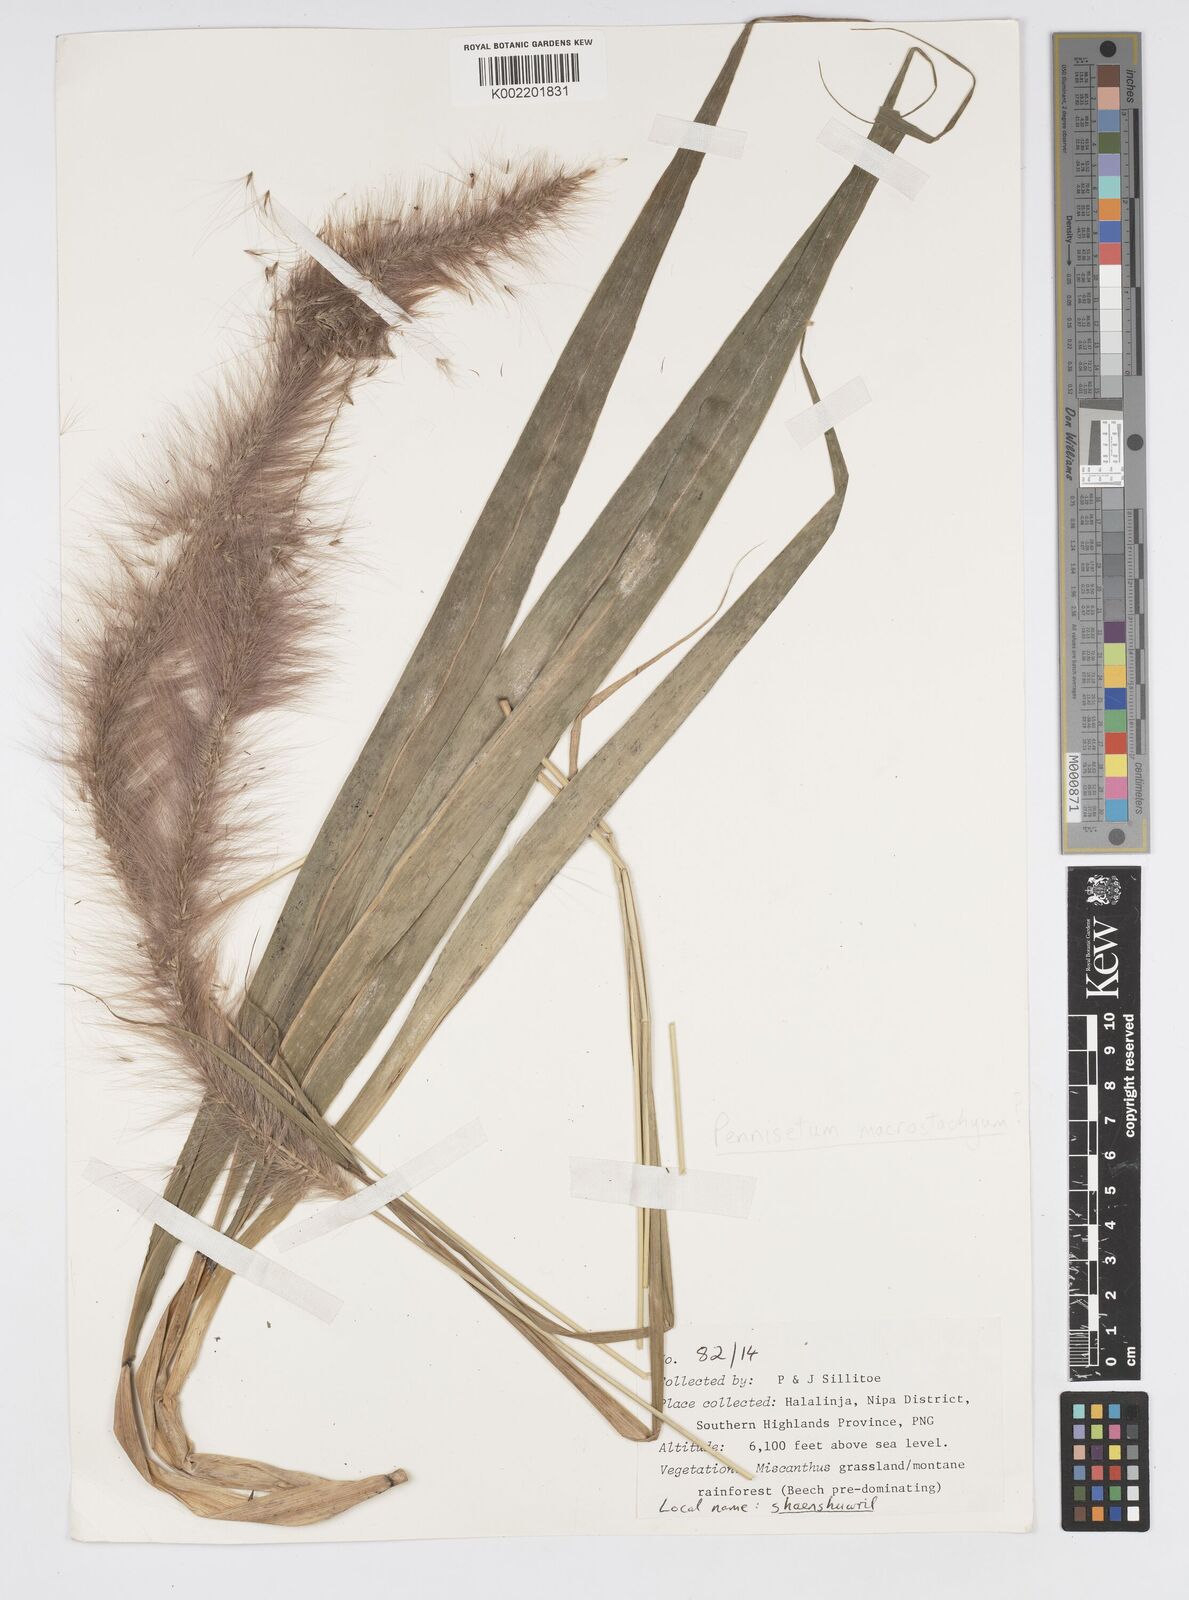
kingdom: Plantae
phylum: Tracheophyta
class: Liliopsida
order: Poales
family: Poaceae
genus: Cenchrus
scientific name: Cenchrus purpureus
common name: Elephant grass
